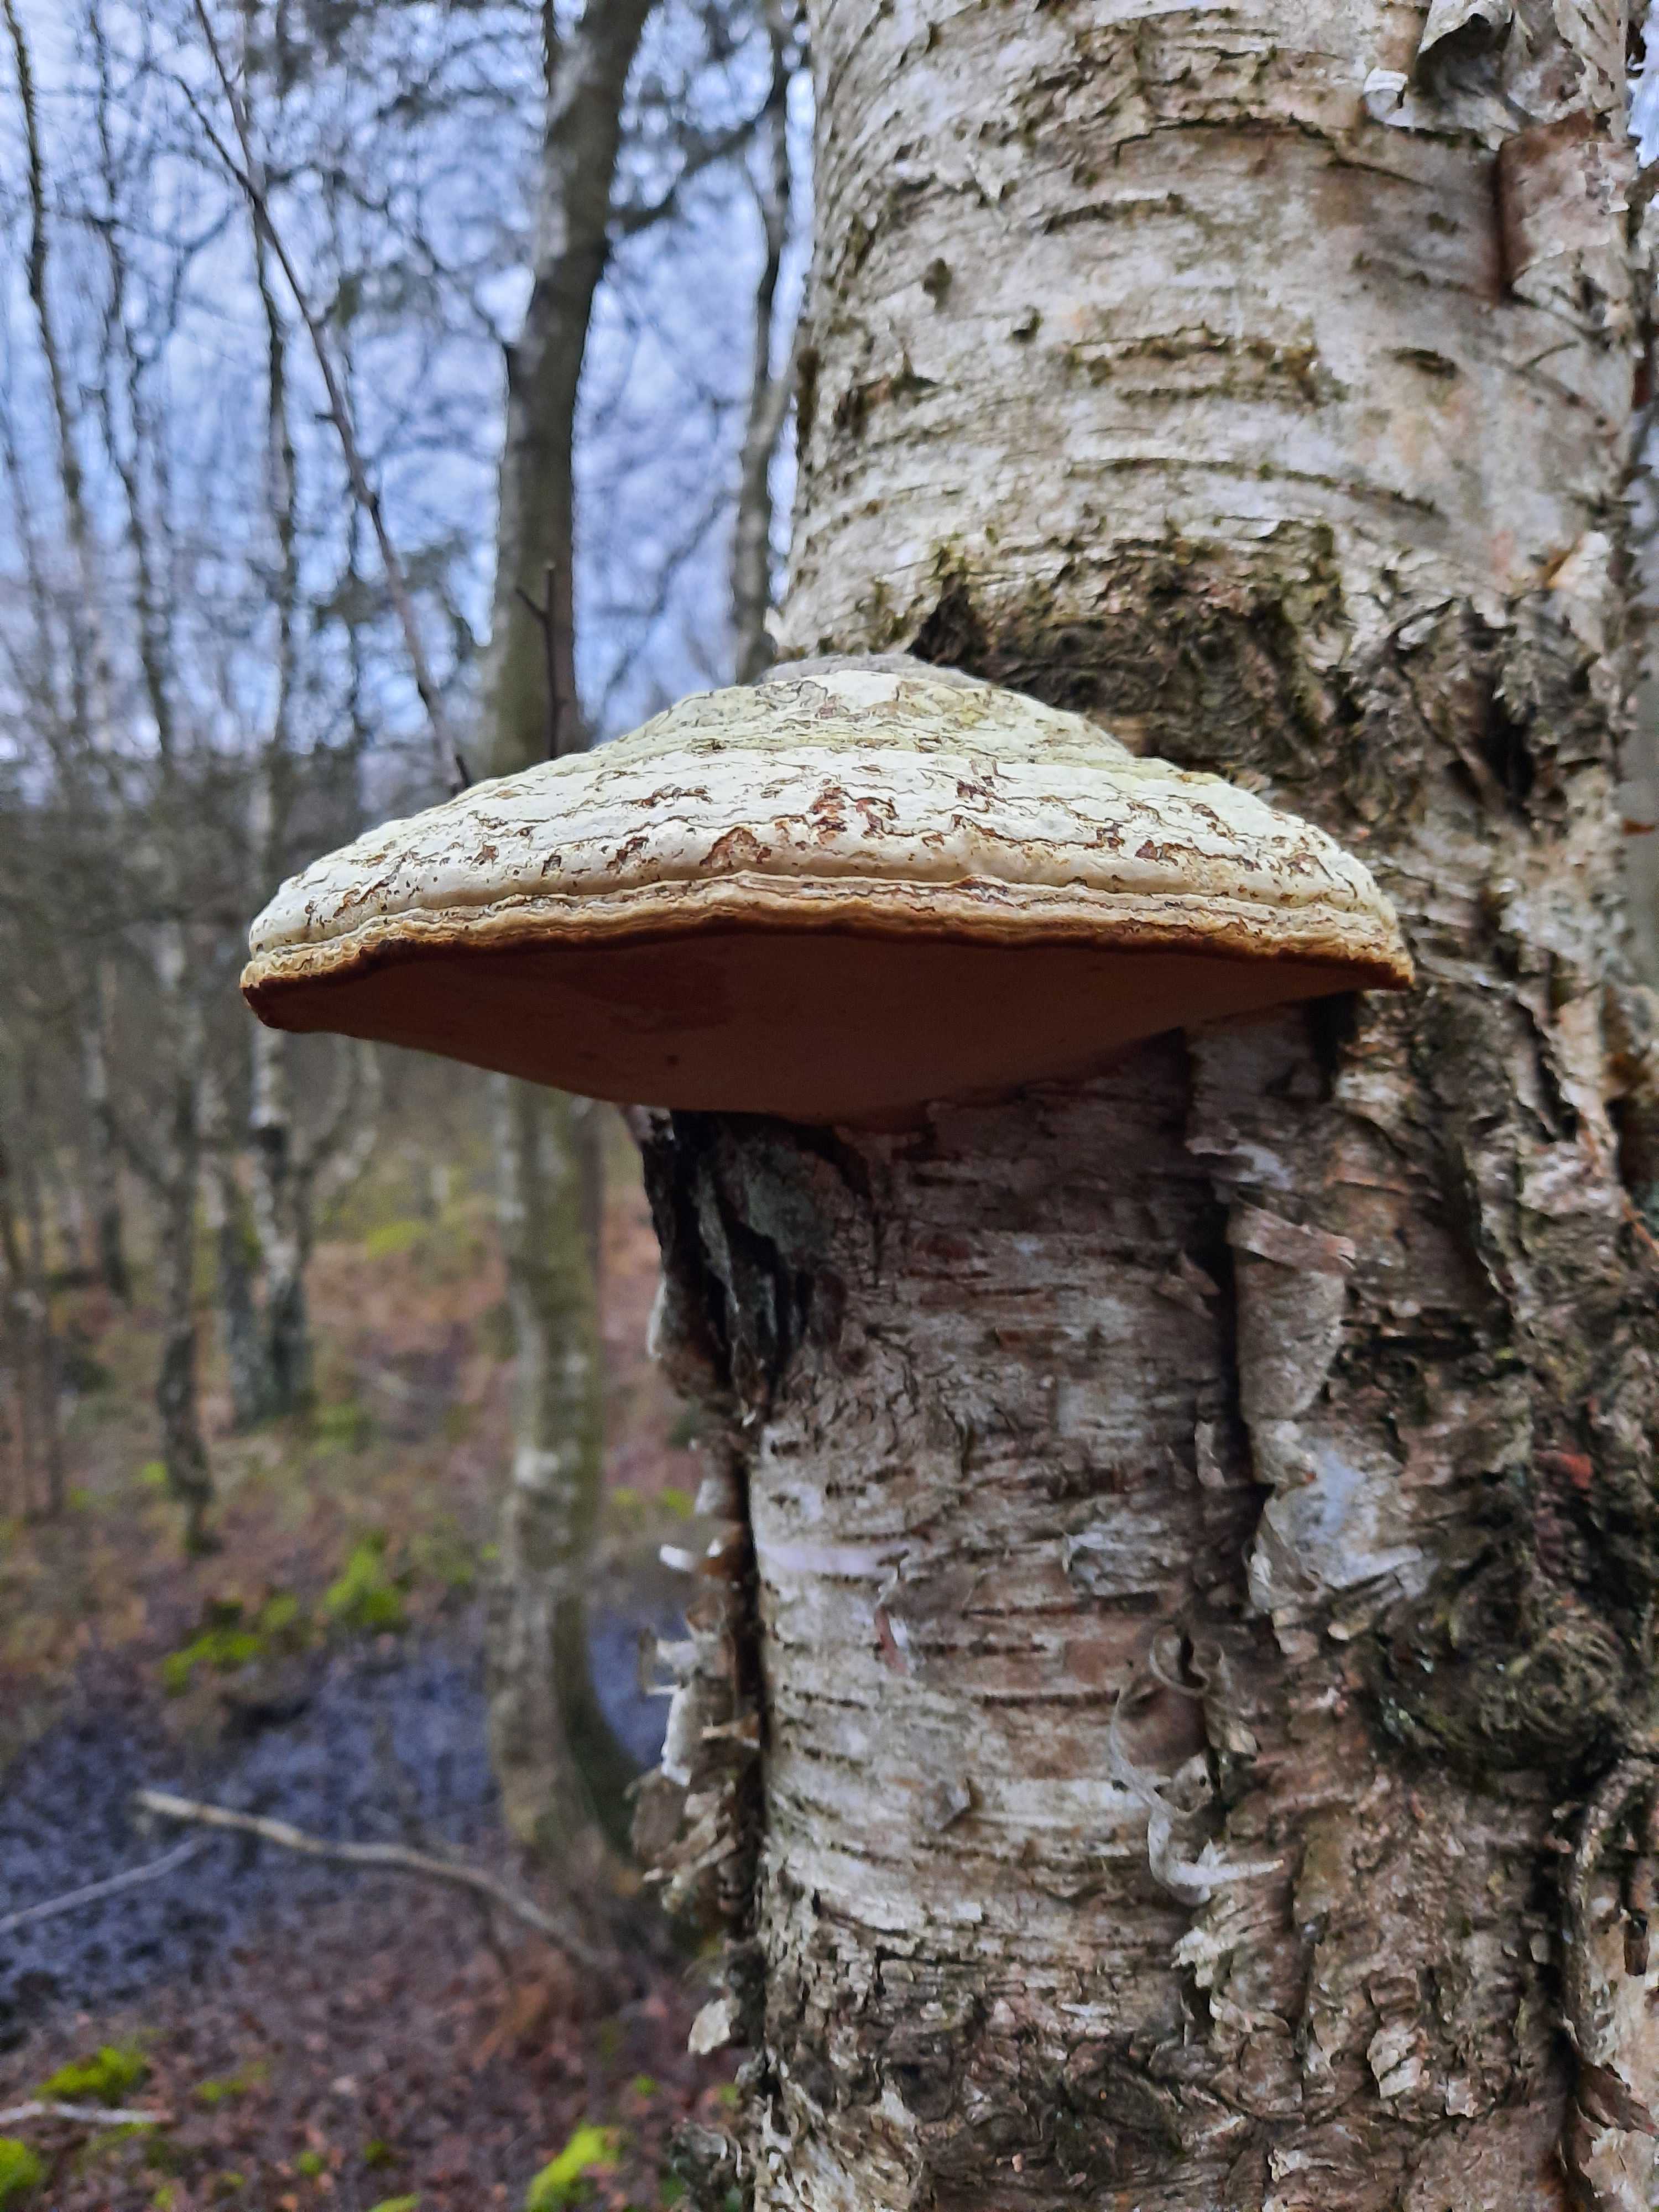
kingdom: Fungi
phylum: Basidiomycota
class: Agaricomycetes
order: Polyporales
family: Polyporaceae
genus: Fomes
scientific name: Fomes fomentarius
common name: tøndersvamp
